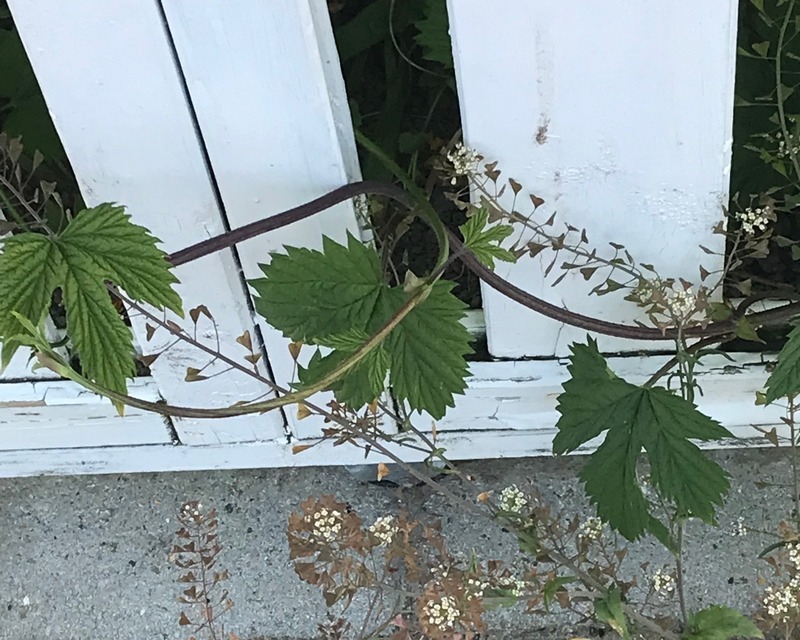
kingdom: Plantae
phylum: Tracheophyta
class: Magnoliopsida
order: Rosales
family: Cannabaceae
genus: Humulus
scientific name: Humulus lupulus
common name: Humle
